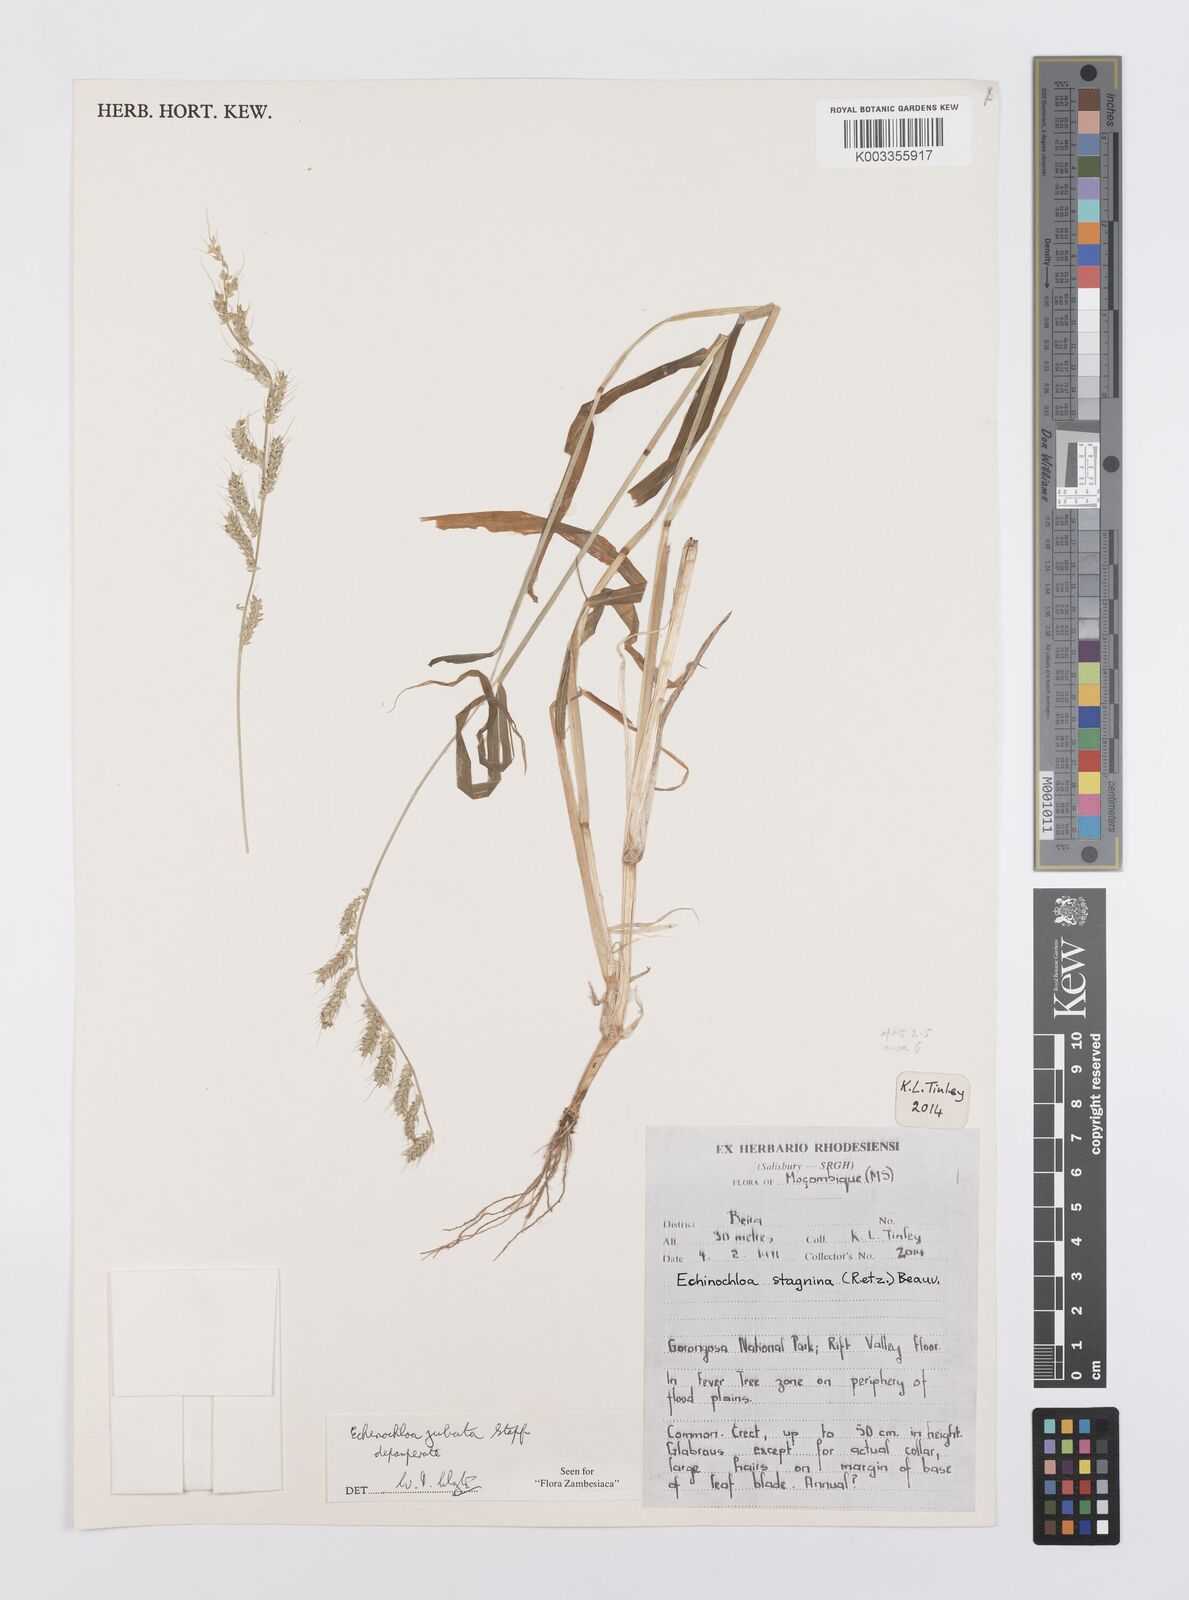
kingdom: Plantae
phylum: Tracheophyta
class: Liliopsida
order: Poales
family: Poaceae
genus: Echinochloa
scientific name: Echinochloa jubata
